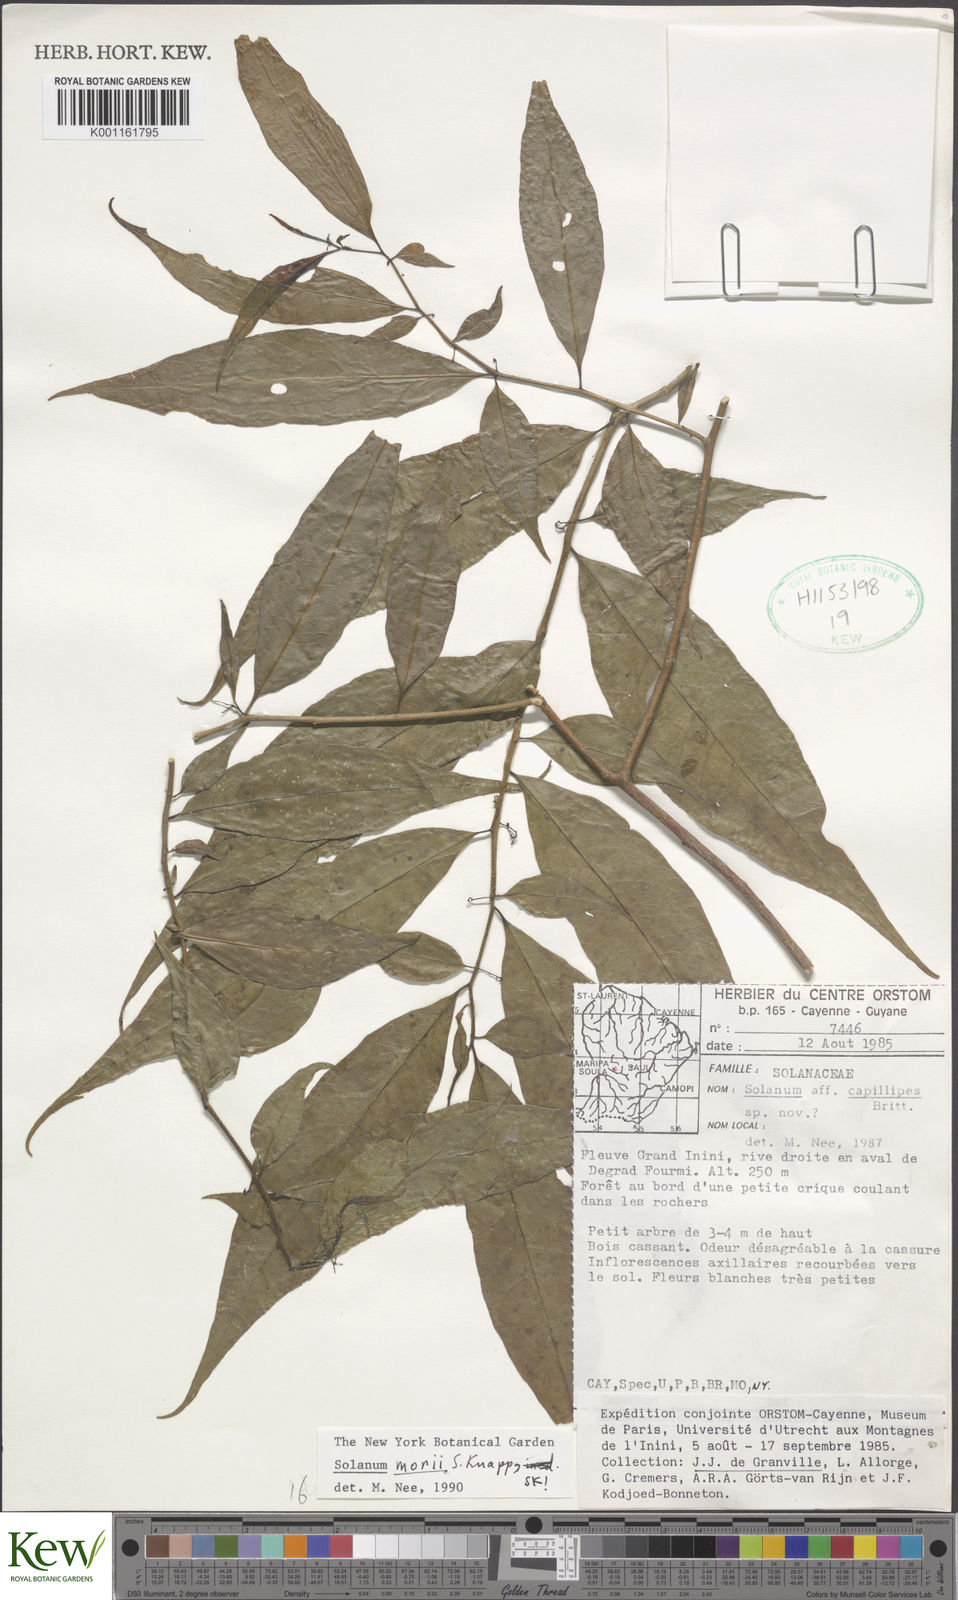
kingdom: Plantae
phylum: Tracheophyta
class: Magnoliopsida
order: Solanales
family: Solanaceae
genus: Solanum
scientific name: Solanum morii
